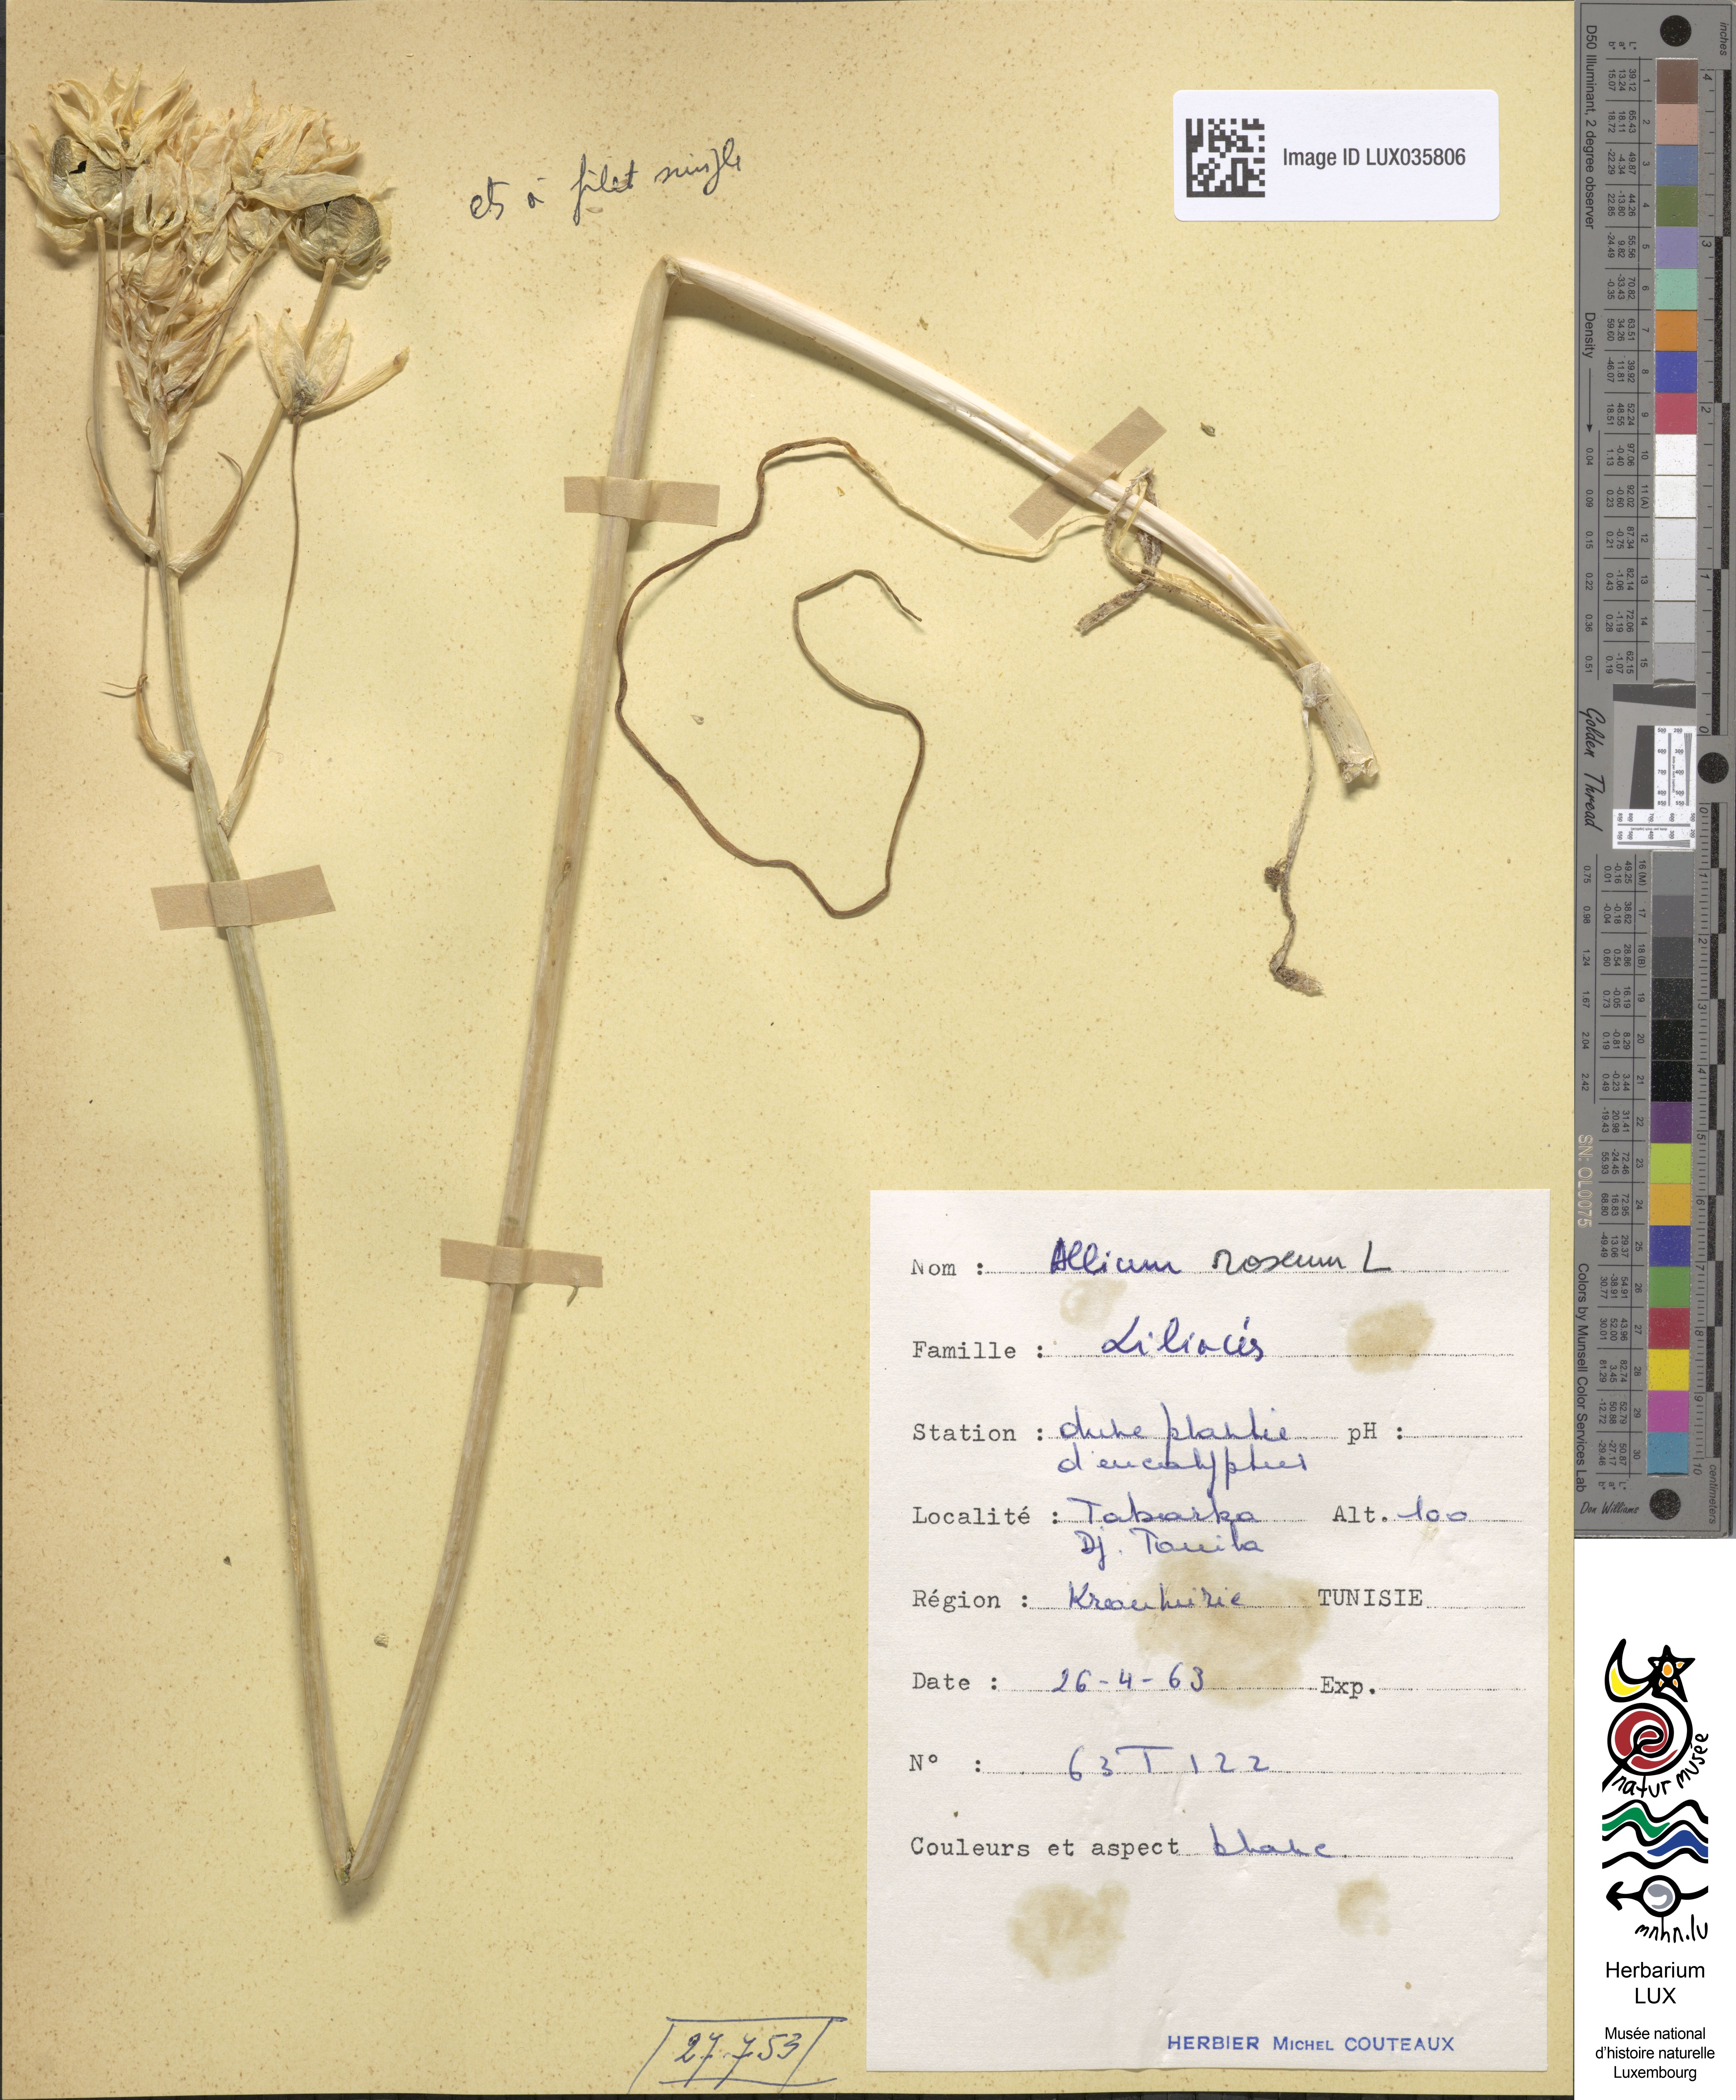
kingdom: Plantae
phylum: Tracheophyta
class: Liliopsida
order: Asparagales
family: Amaryllidaceae
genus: Allium
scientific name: Allium roseum
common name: Rosy garlic
